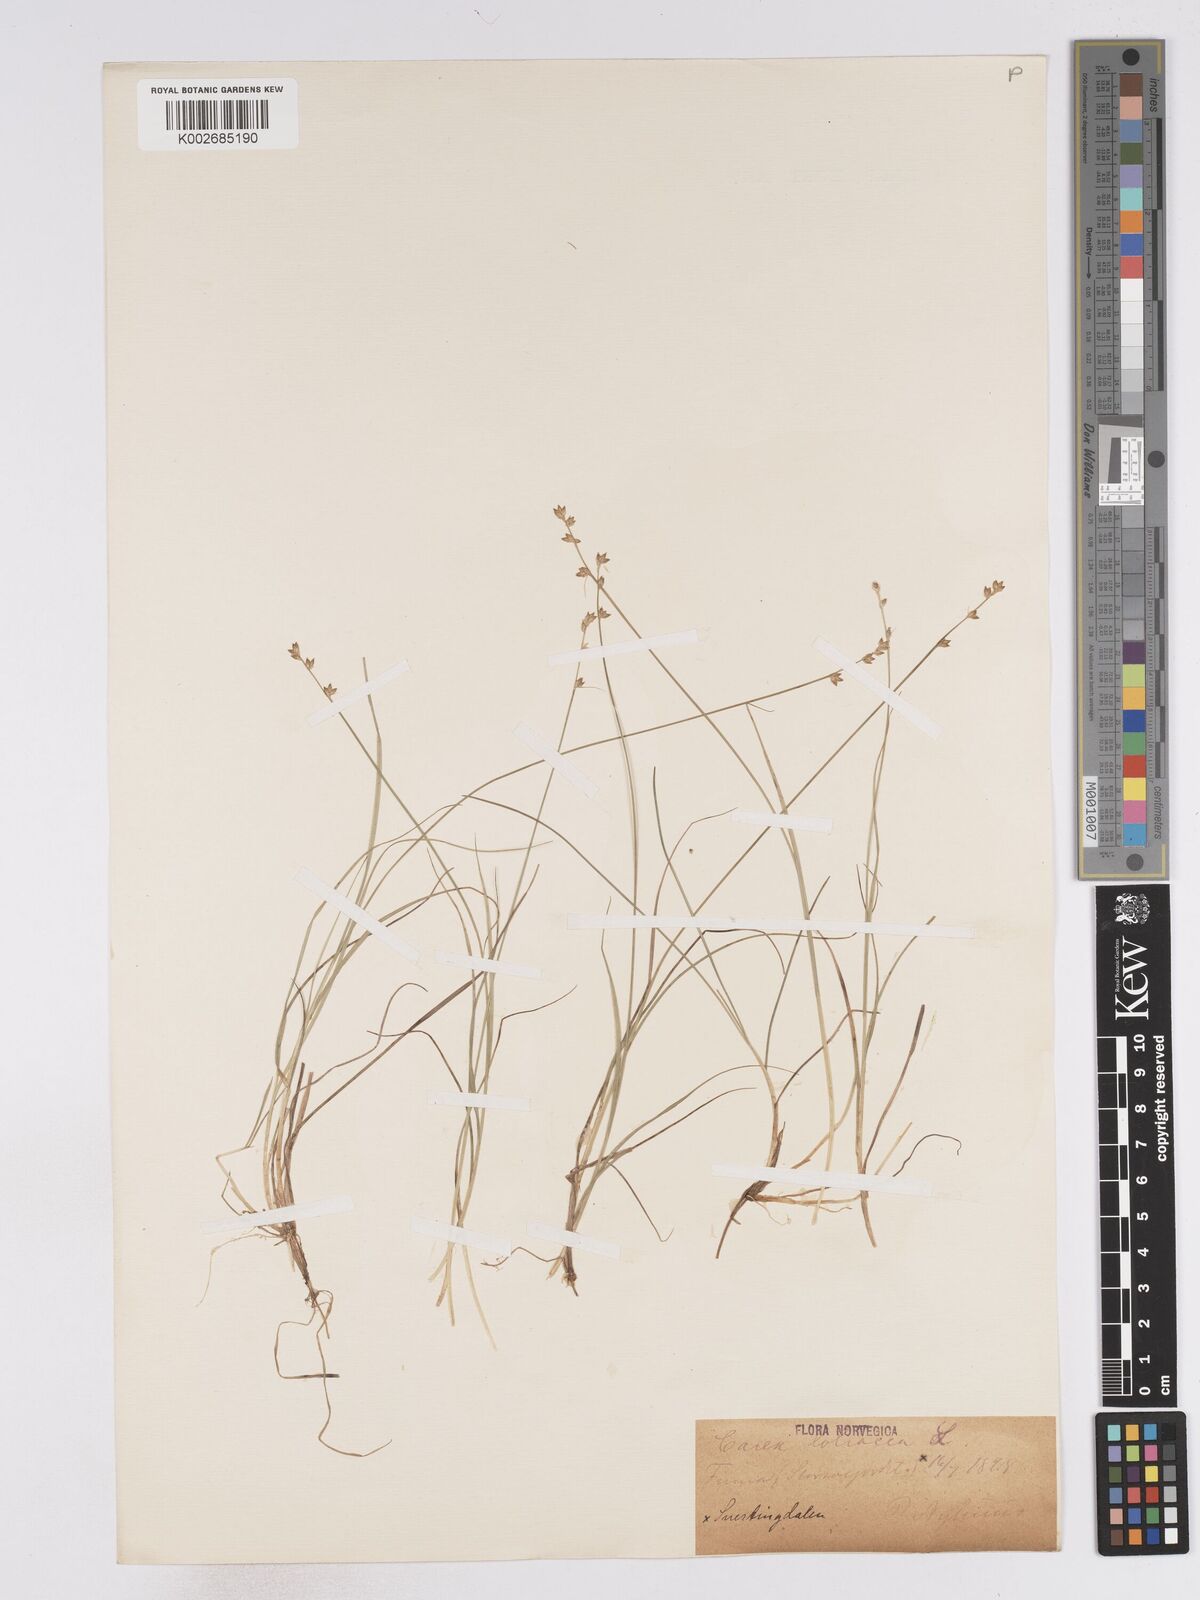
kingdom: Plantae
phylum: Tracheophyta
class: Liliopsida
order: Poales
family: Cyperaceae
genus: Carex
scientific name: Carex loliacea
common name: Ryegrass sedge
